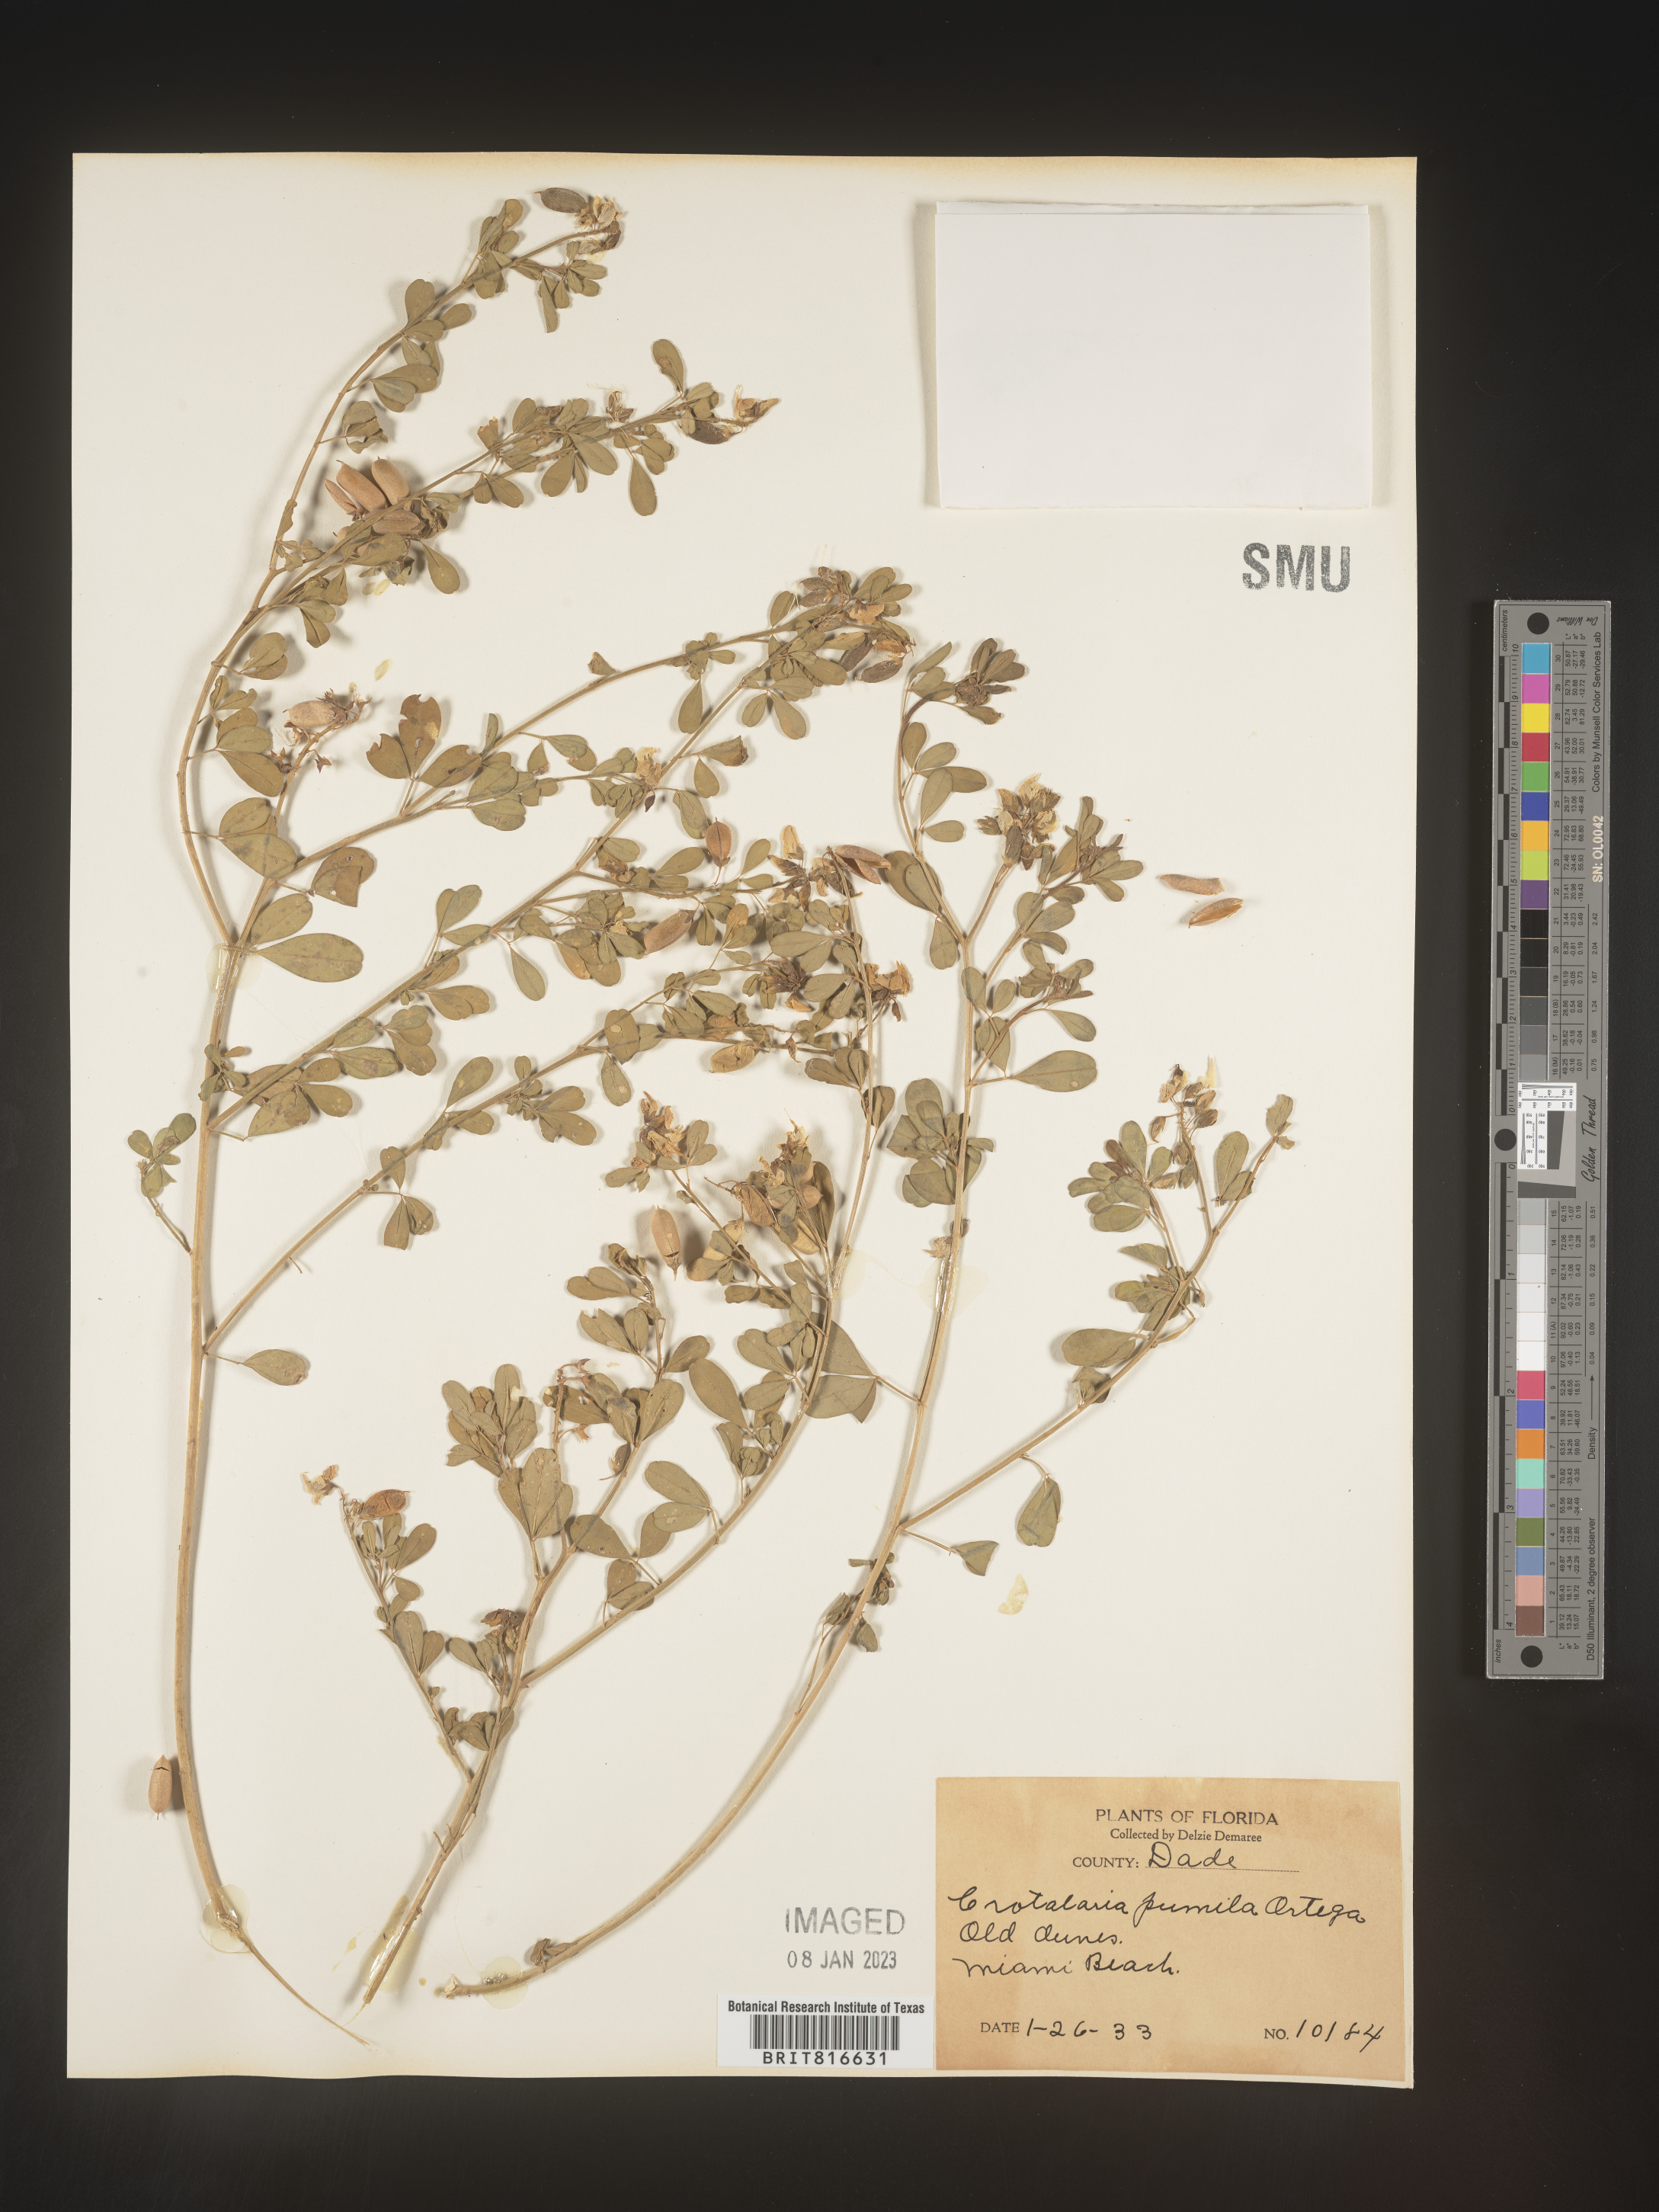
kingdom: Plantae
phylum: Tracheophyta
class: Magnoliopsida
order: Fabales
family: Fabaceae
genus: Crotalaria
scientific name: Crotalaria pumila
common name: Low rattlebox
